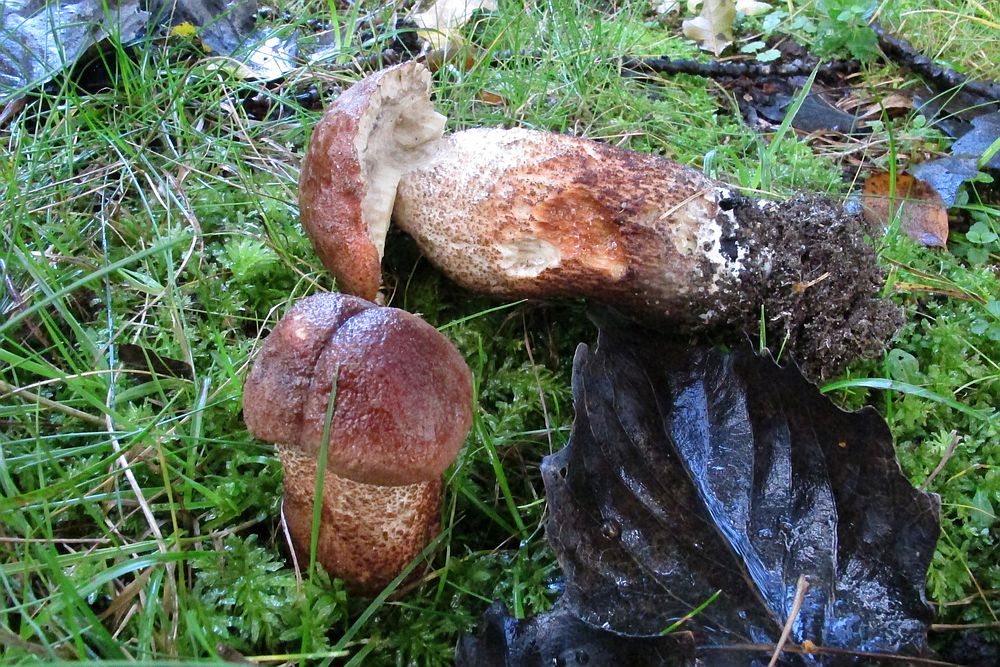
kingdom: Fungi
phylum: Basidiomycota
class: Agaricomycetes
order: Boletales
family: Boletaceae
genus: Leccinum
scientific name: Leccinum albostipitatum
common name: aspe-skælrørhat
